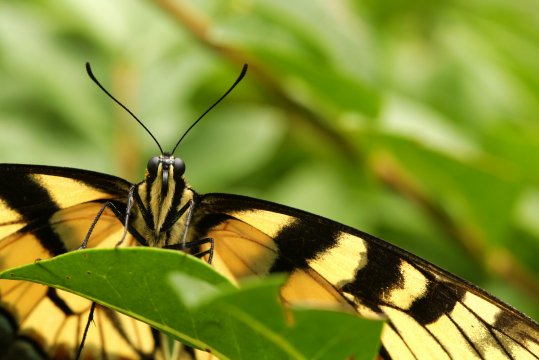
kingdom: Animalia
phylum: Arthropoda
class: Insecta
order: Lepidoptera
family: Papilionidae
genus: Pterourus
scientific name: Pterourus glaucus
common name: Eastern Tiger Swallowtail
